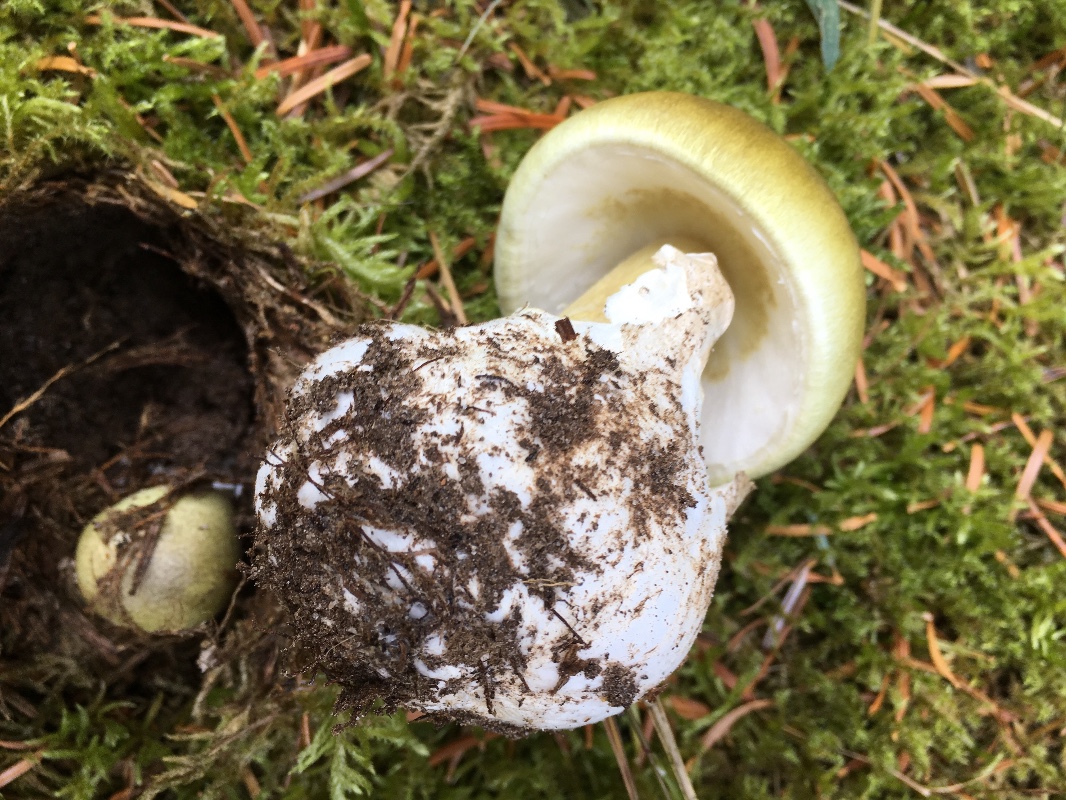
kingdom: Fungi
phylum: Basidiomycota
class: Agaricomycetes
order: Agaricales
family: Amanitaceae
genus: Amanita
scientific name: Amanita phalloides
